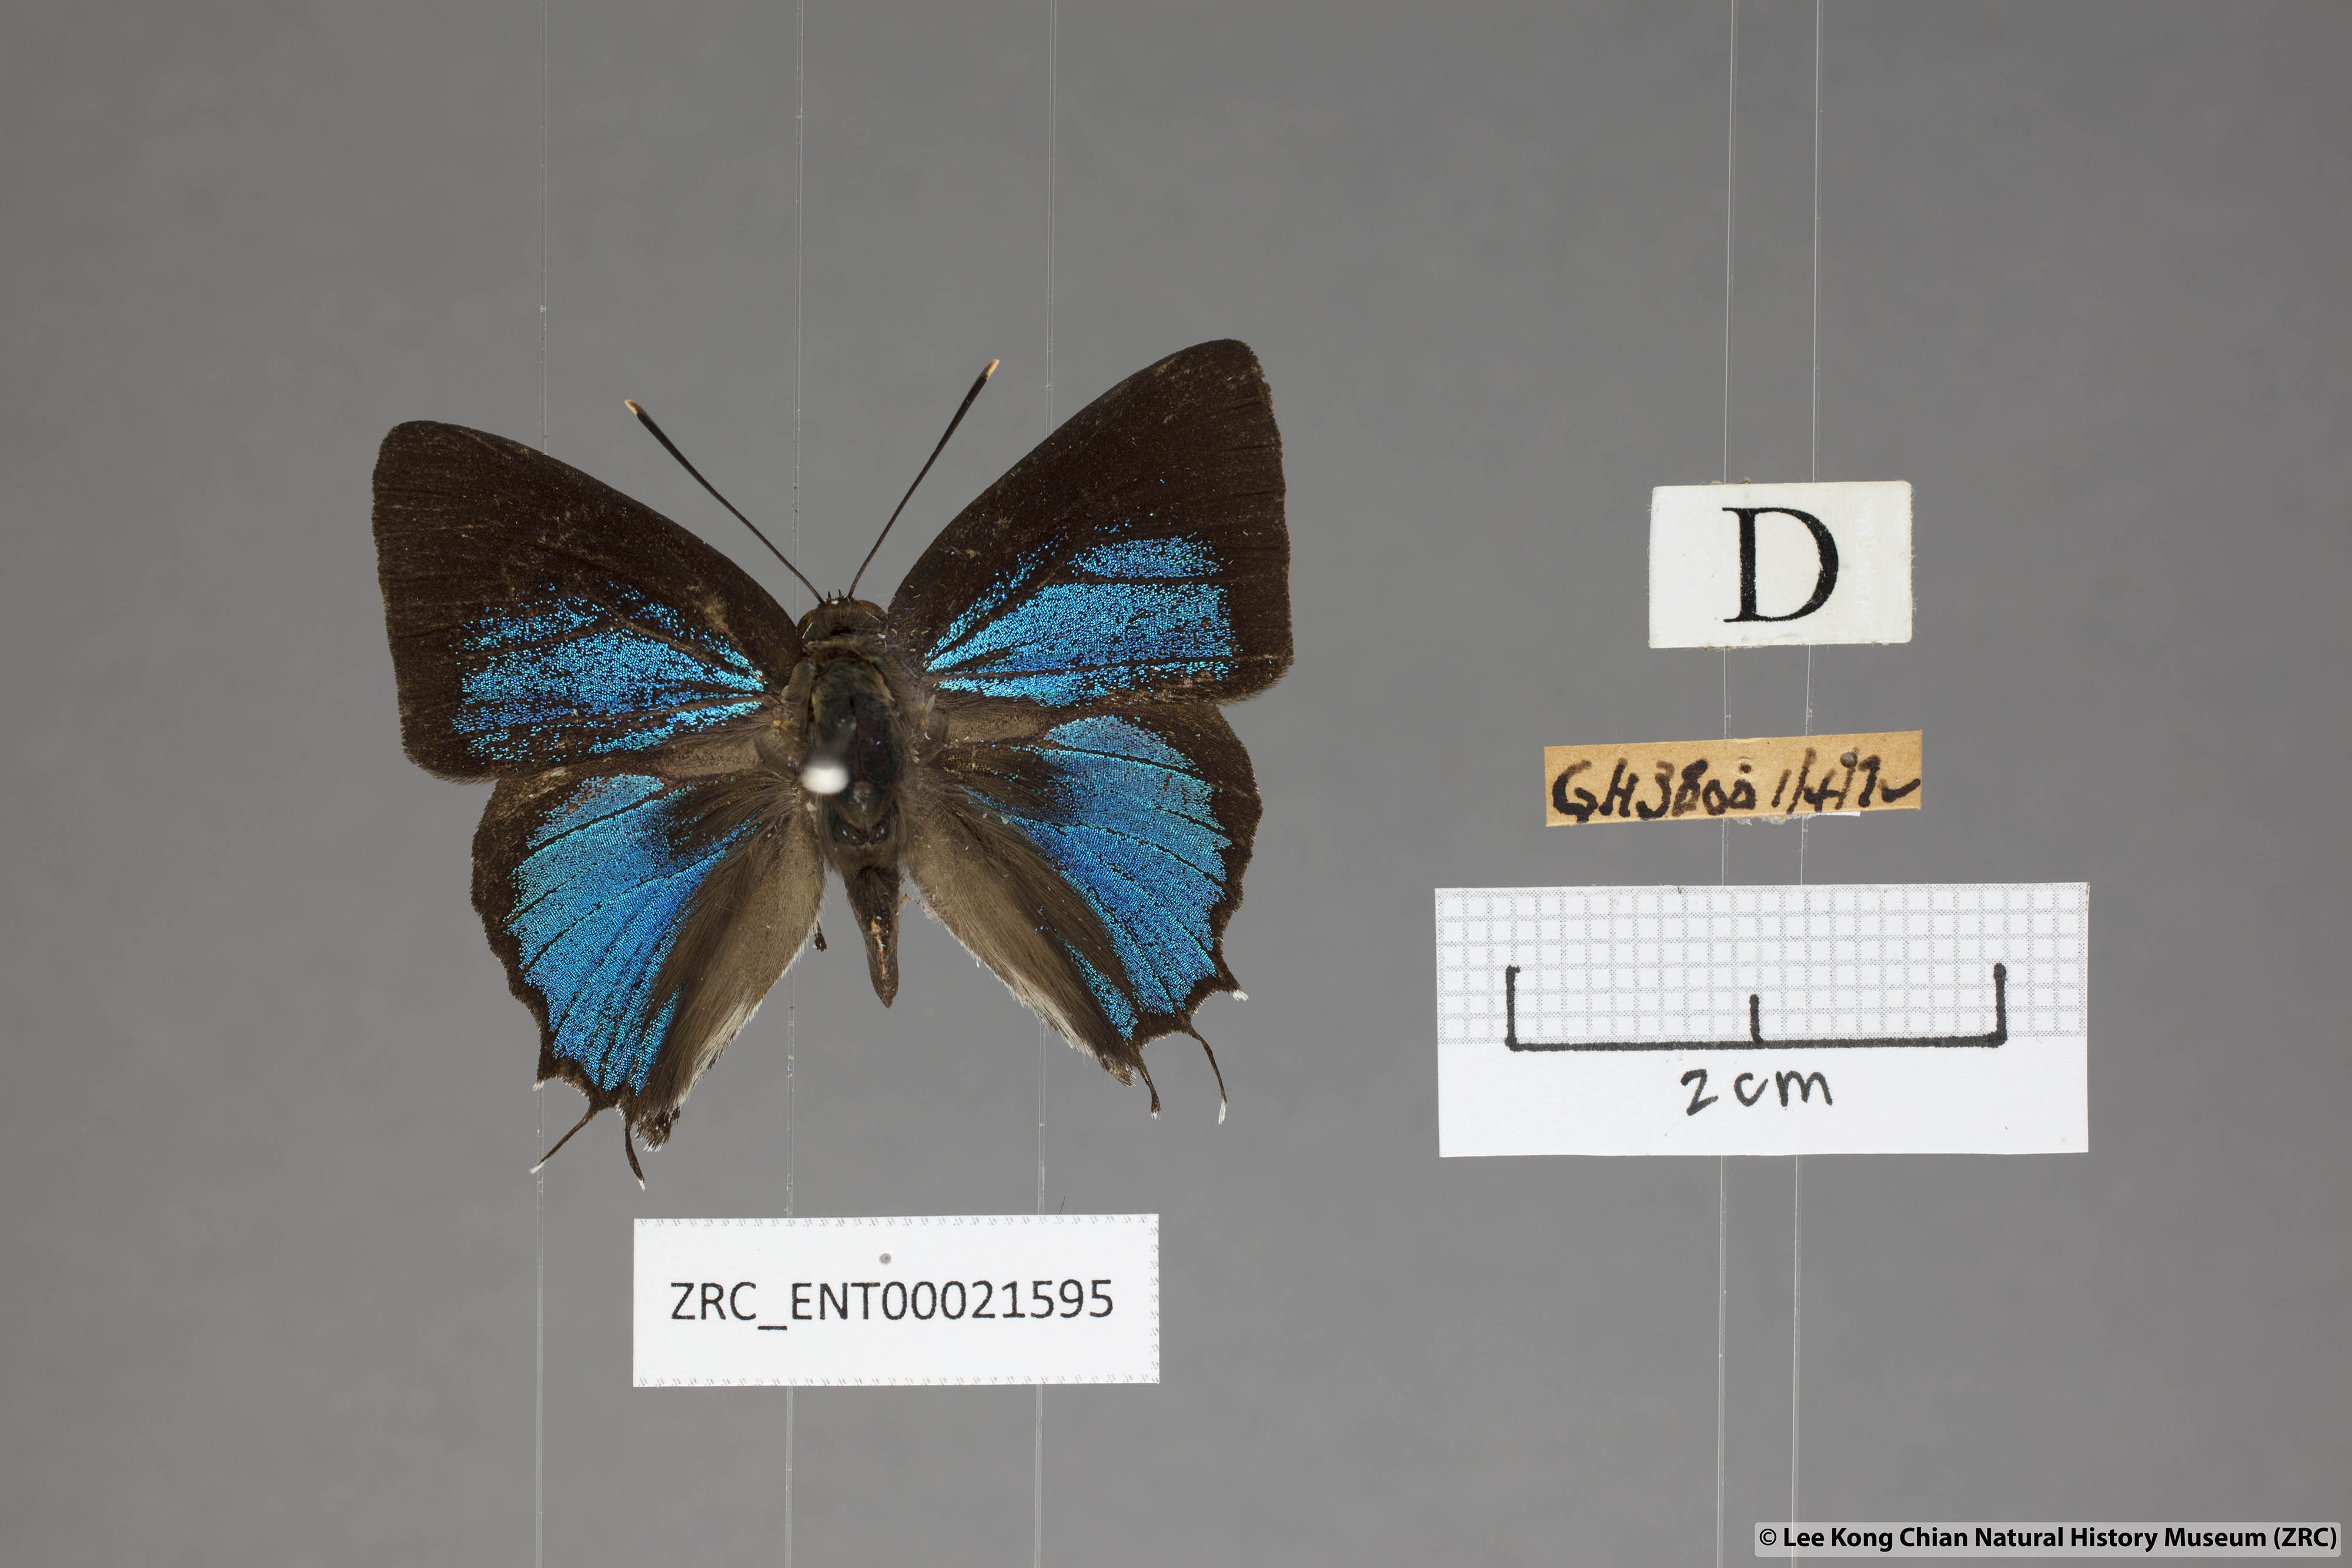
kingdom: Animalia
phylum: Arthropoda
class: Insecta
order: Lepidoptera
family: Lycaenidae
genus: Iraota
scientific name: Iraota rochana
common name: Scarce silverstreak blue
